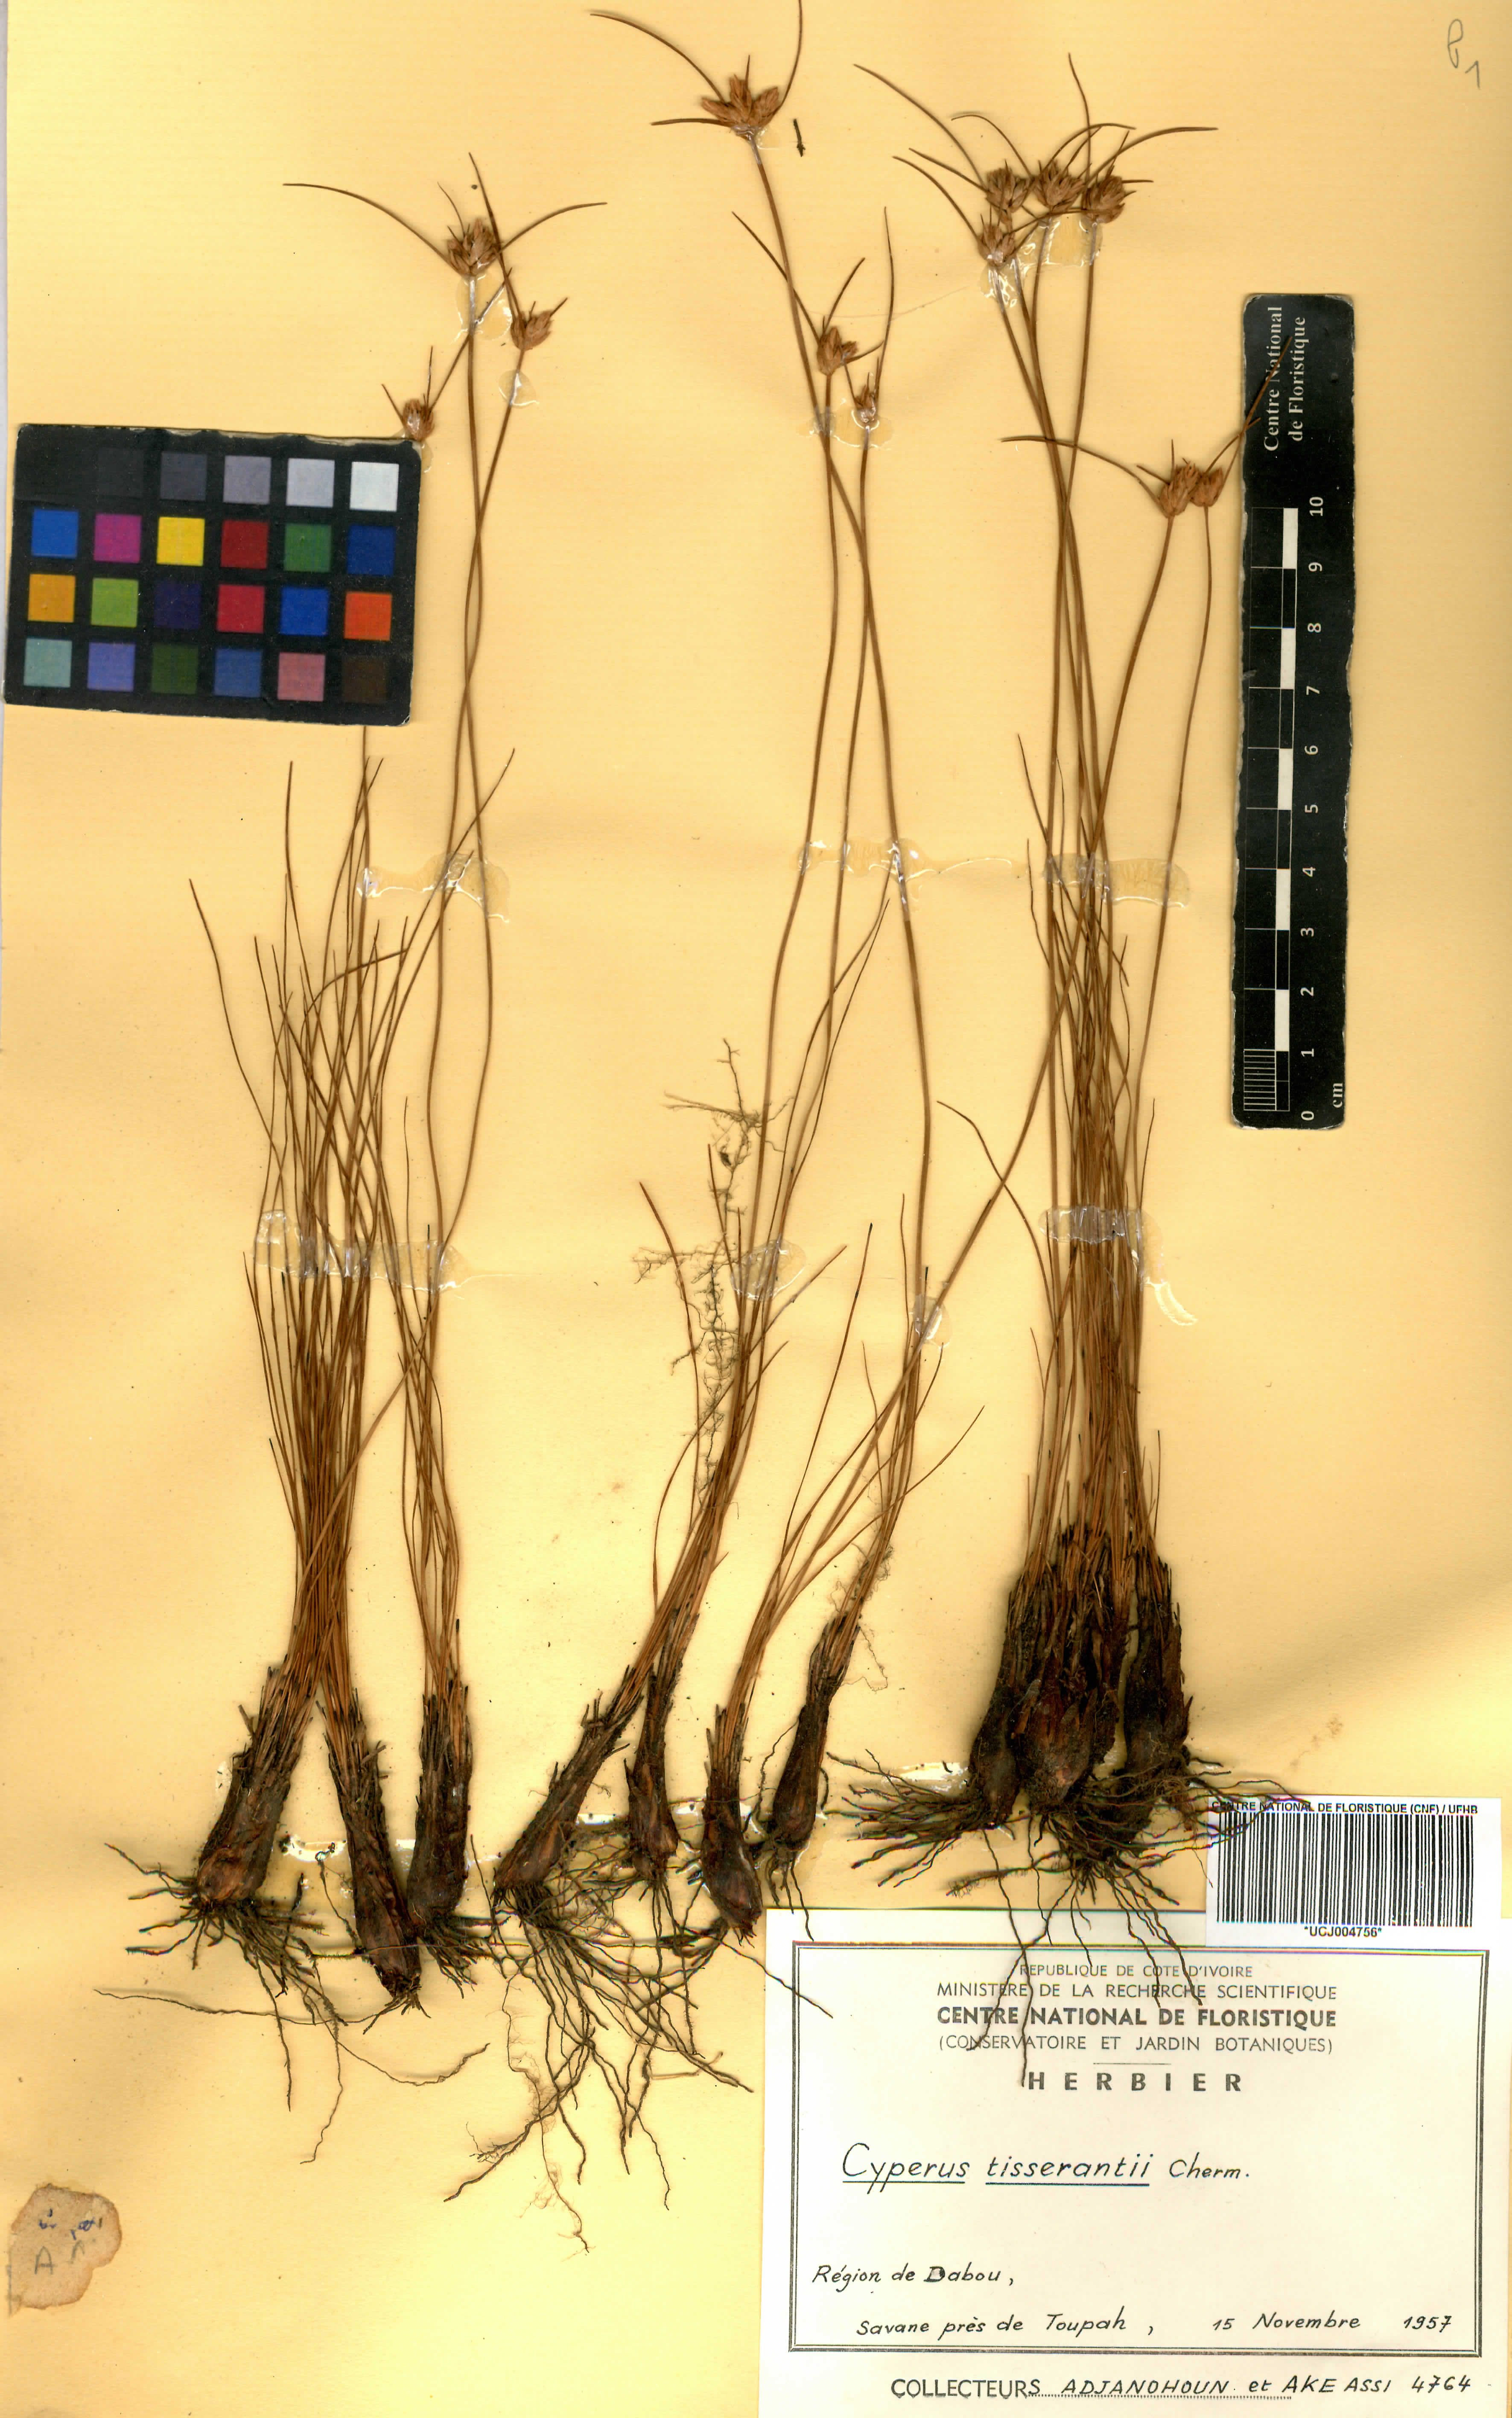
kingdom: Plantae
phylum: Tracheophyta
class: Liliopsida
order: Poales
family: Cyperaceae
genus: Cyperus
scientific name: Cyperus niveus
